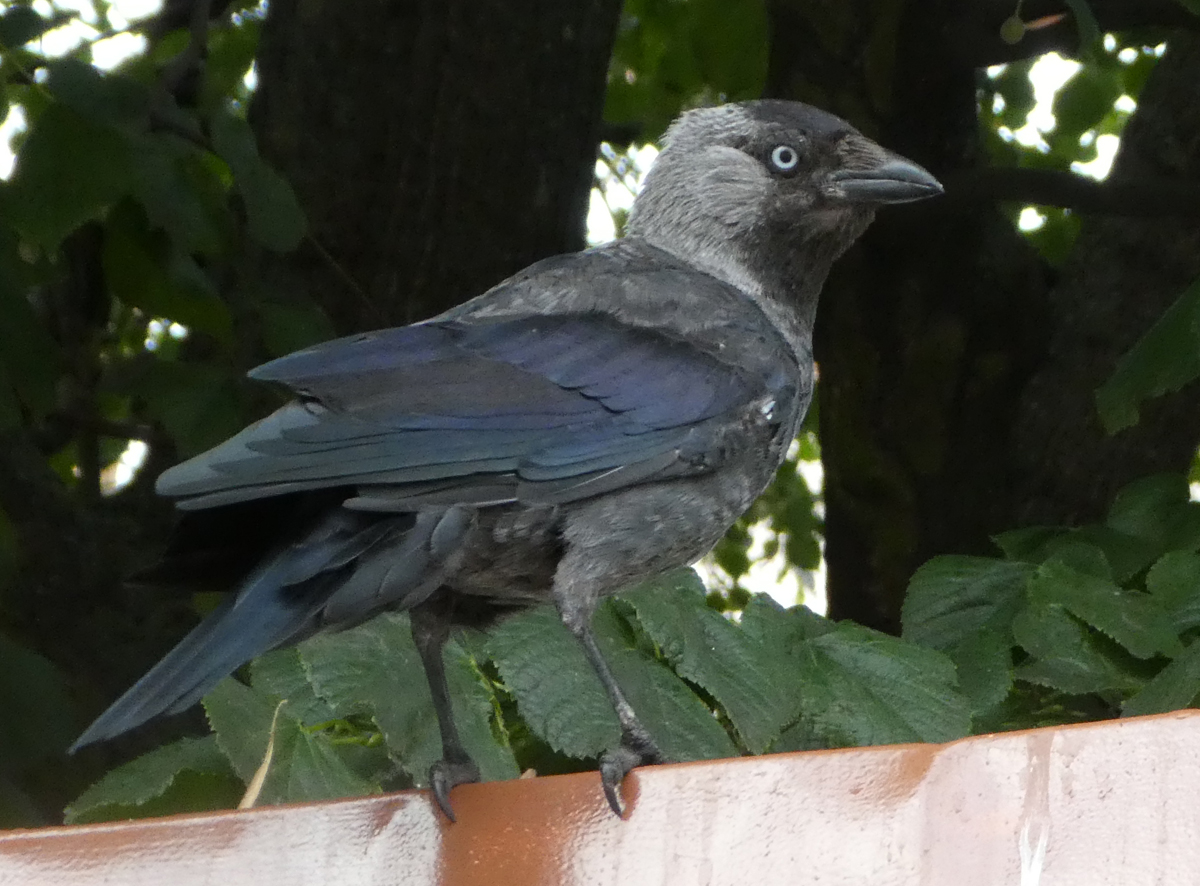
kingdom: Animalia
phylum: Chordata
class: Aves
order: Passeriformes
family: Corvidae
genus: Coloeus
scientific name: Coloeus monedula
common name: Western jackdaw
